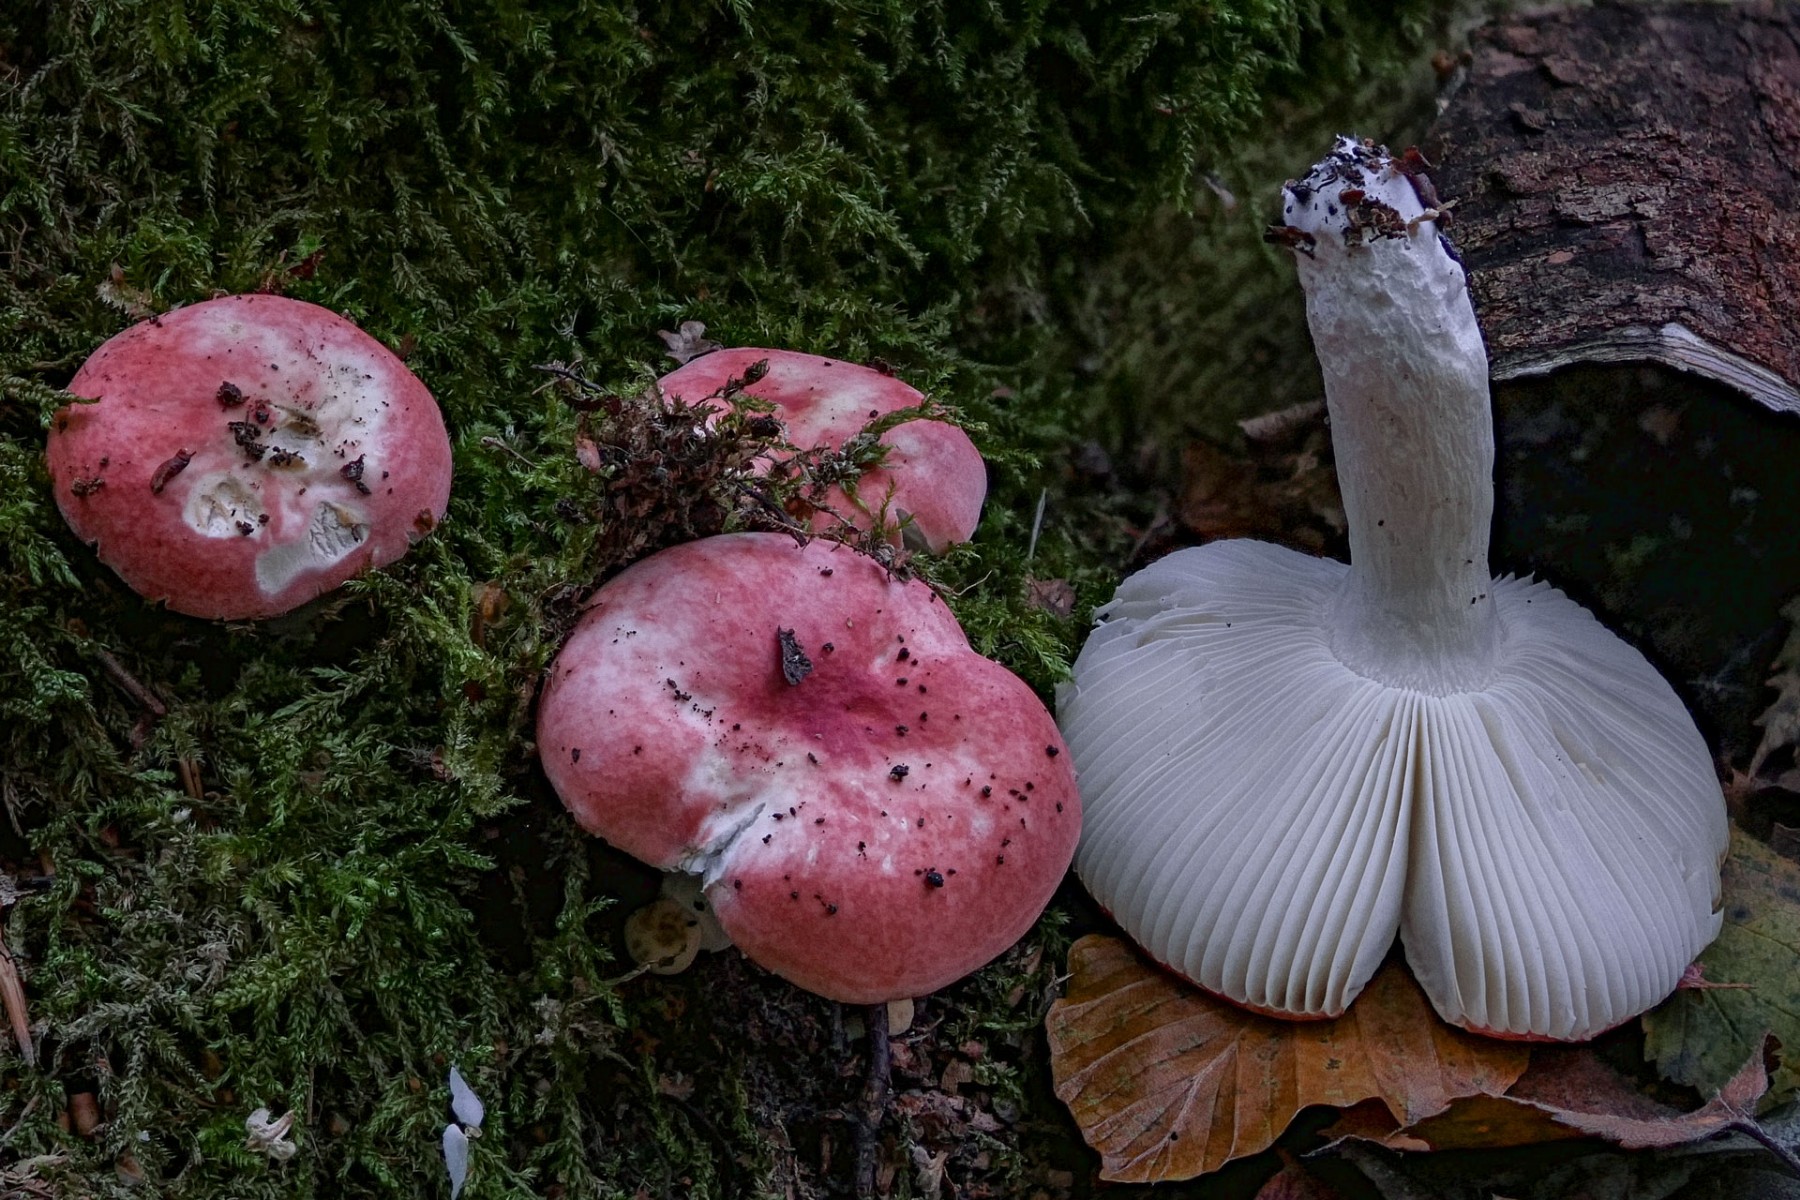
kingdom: Fungi
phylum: Basidiomycota
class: Agaricomycetes
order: Russulales
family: Russulaceae
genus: Russula
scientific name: Russula
